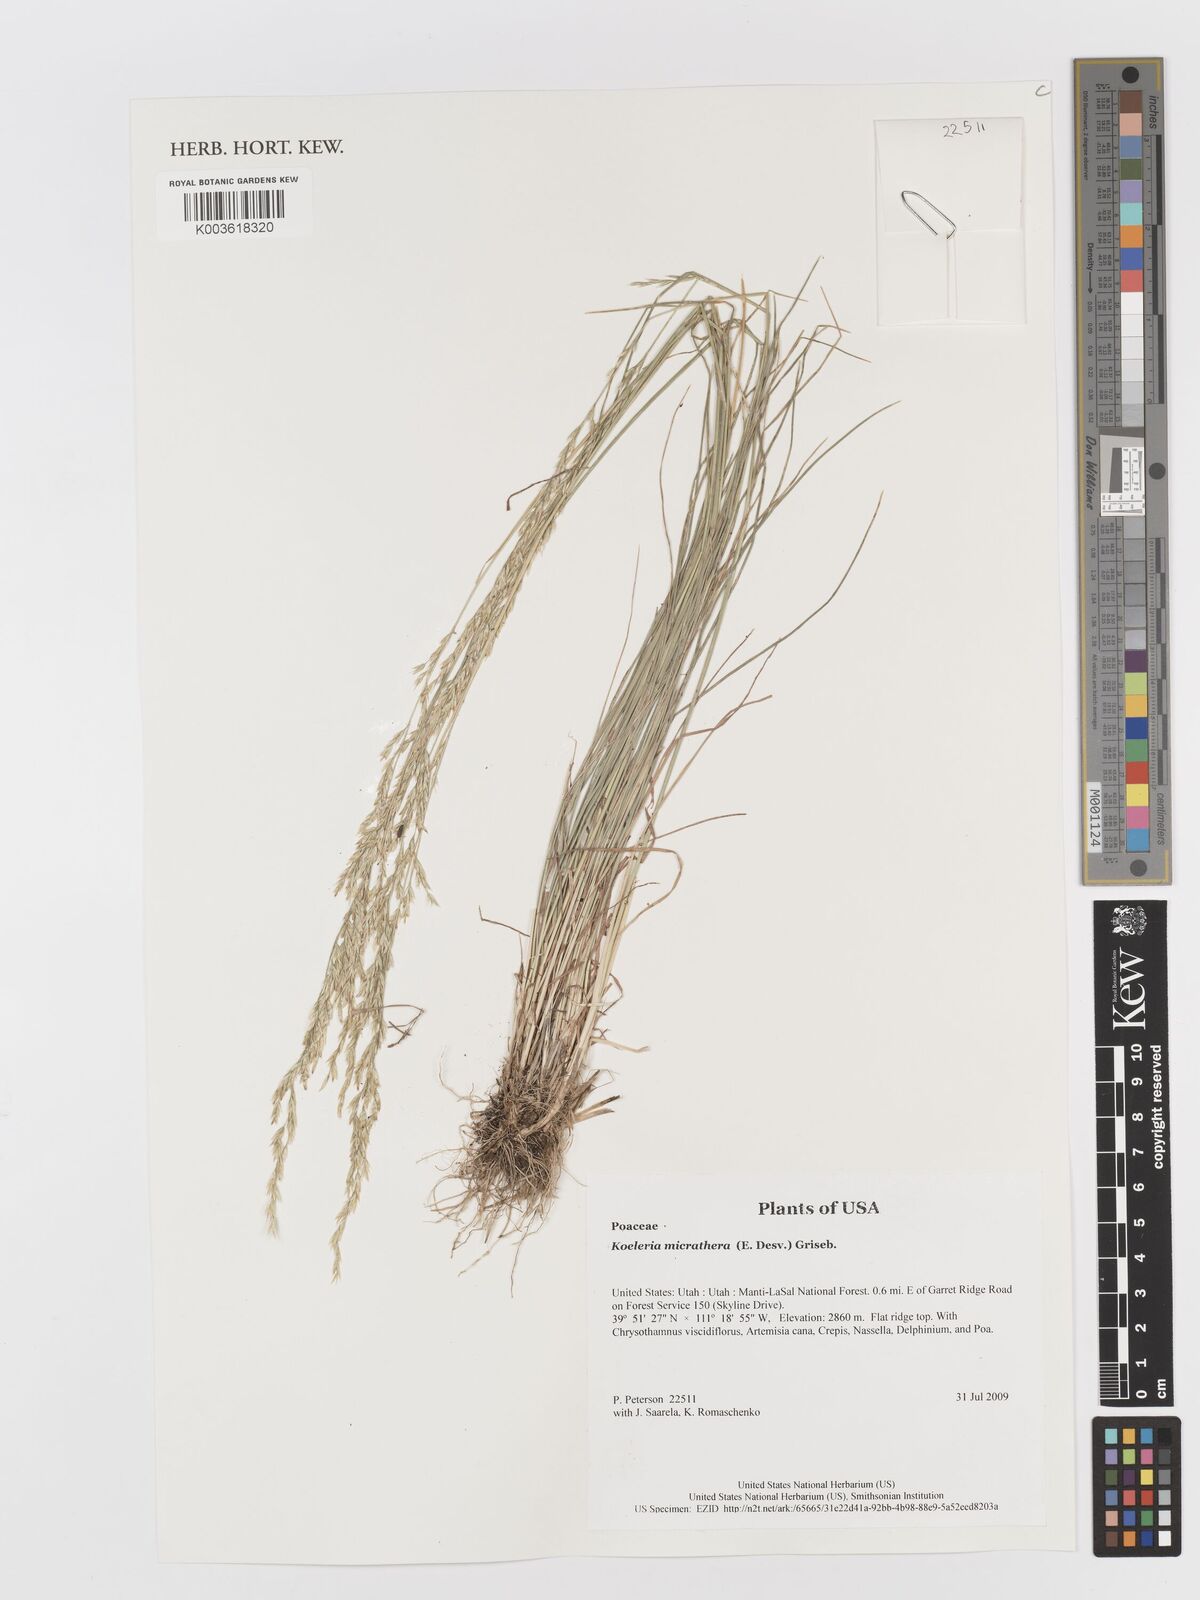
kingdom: Plantae
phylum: Tracheophyta
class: Liliopsida
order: Poales
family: Poaceae
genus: Cinnagrostis
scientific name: Cinnagrostis micrathera
